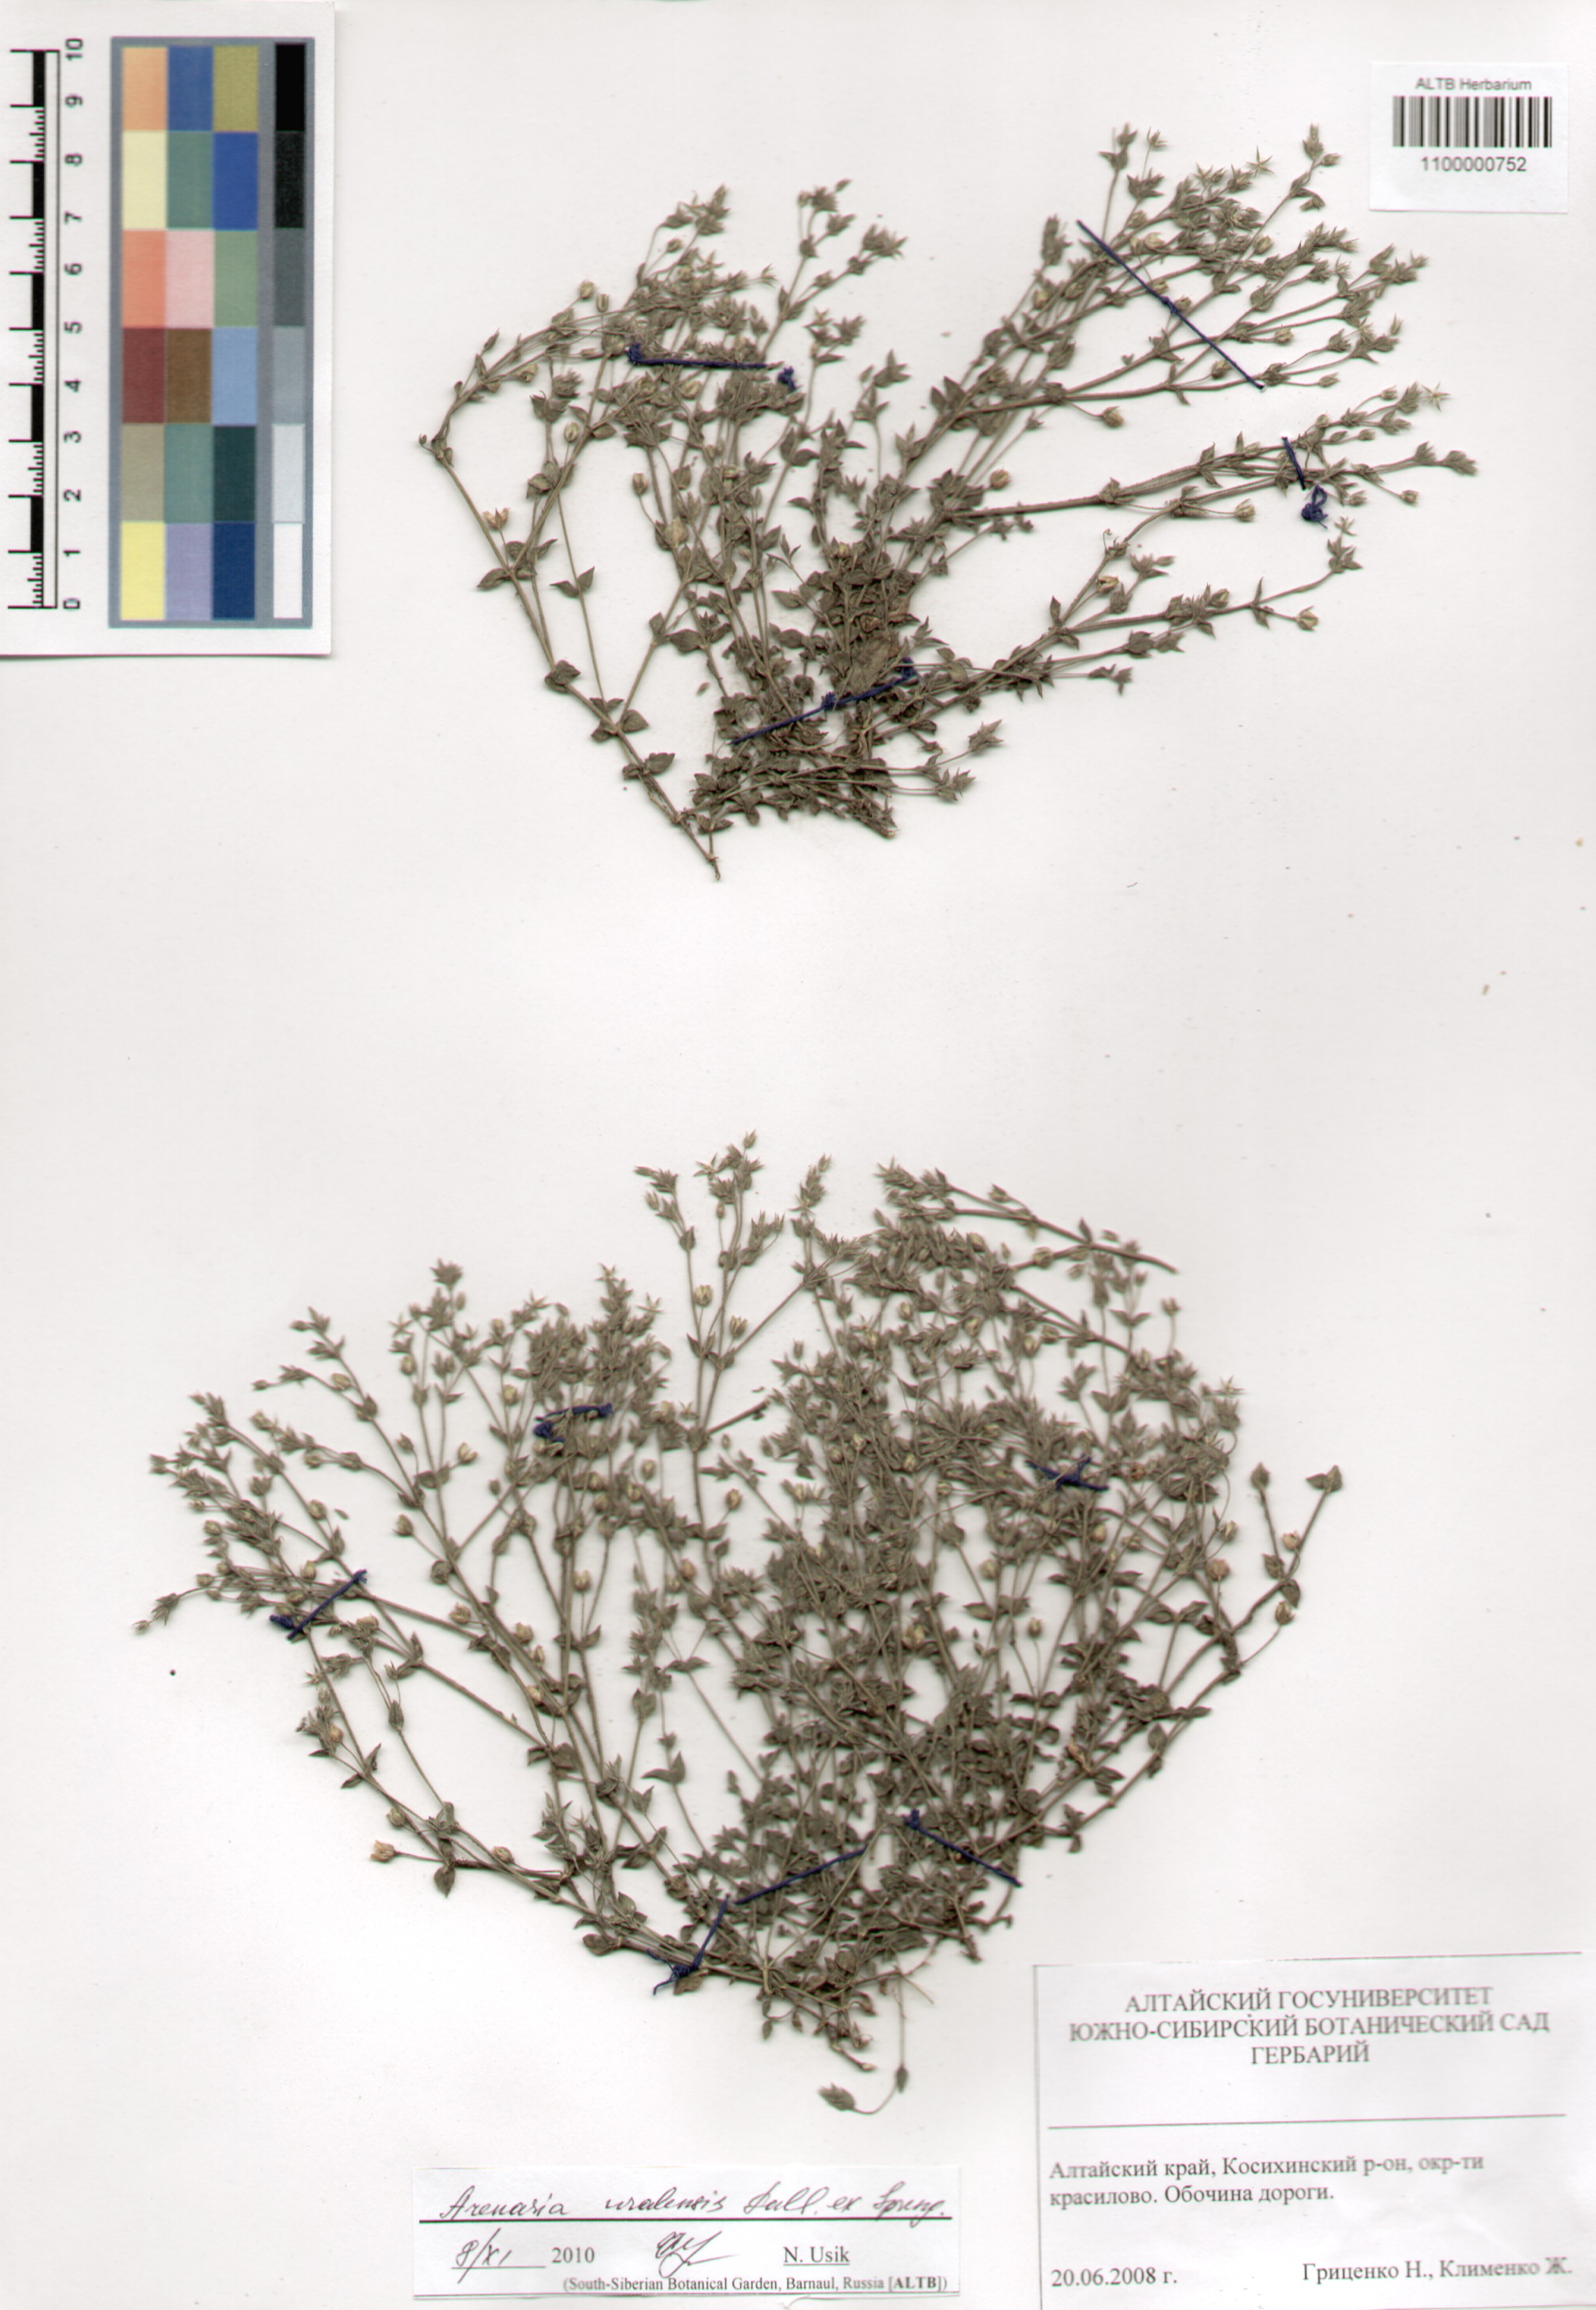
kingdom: Plantae
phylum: Tracheophyta
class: Magnoliopsida
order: Caryophyllales
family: Caryophyllaceae
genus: Arenaria
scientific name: Arenaria serpyllifolia
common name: Thyme-leaved sandwort
